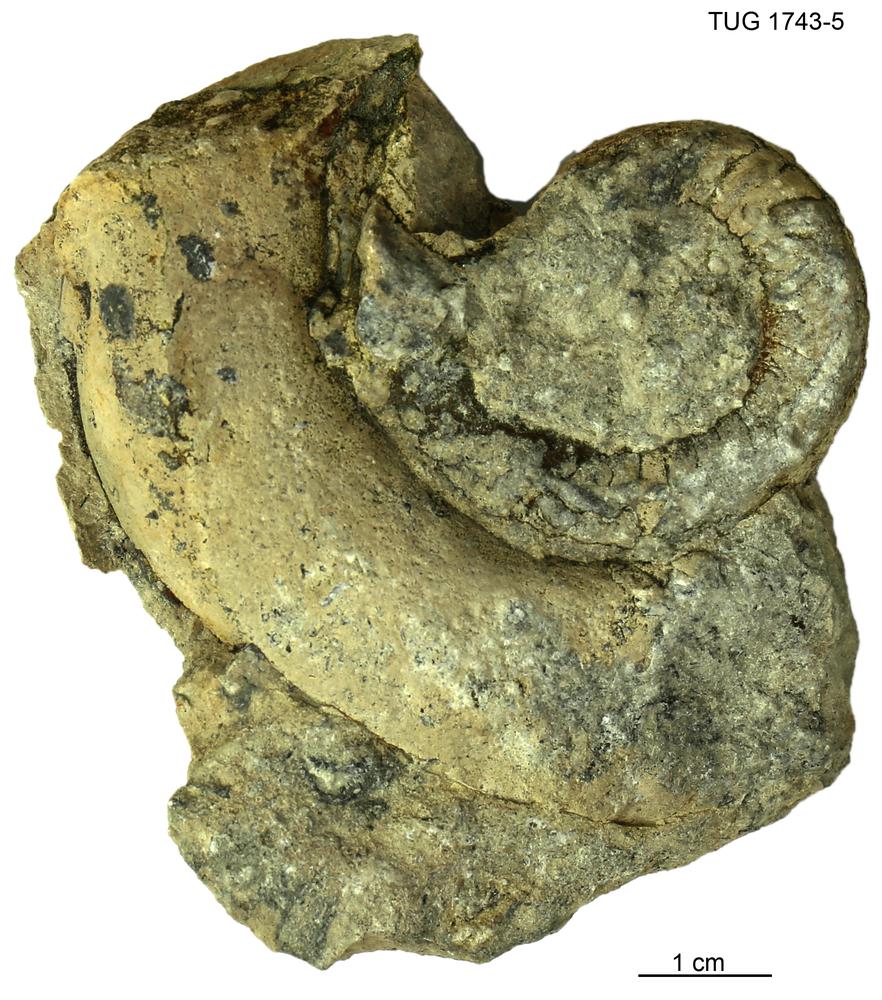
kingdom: Animalia
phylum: Mollusca
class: Cephalopoda
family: Trocholitidae
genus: Schroederoceras
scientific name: Schroederoceras
